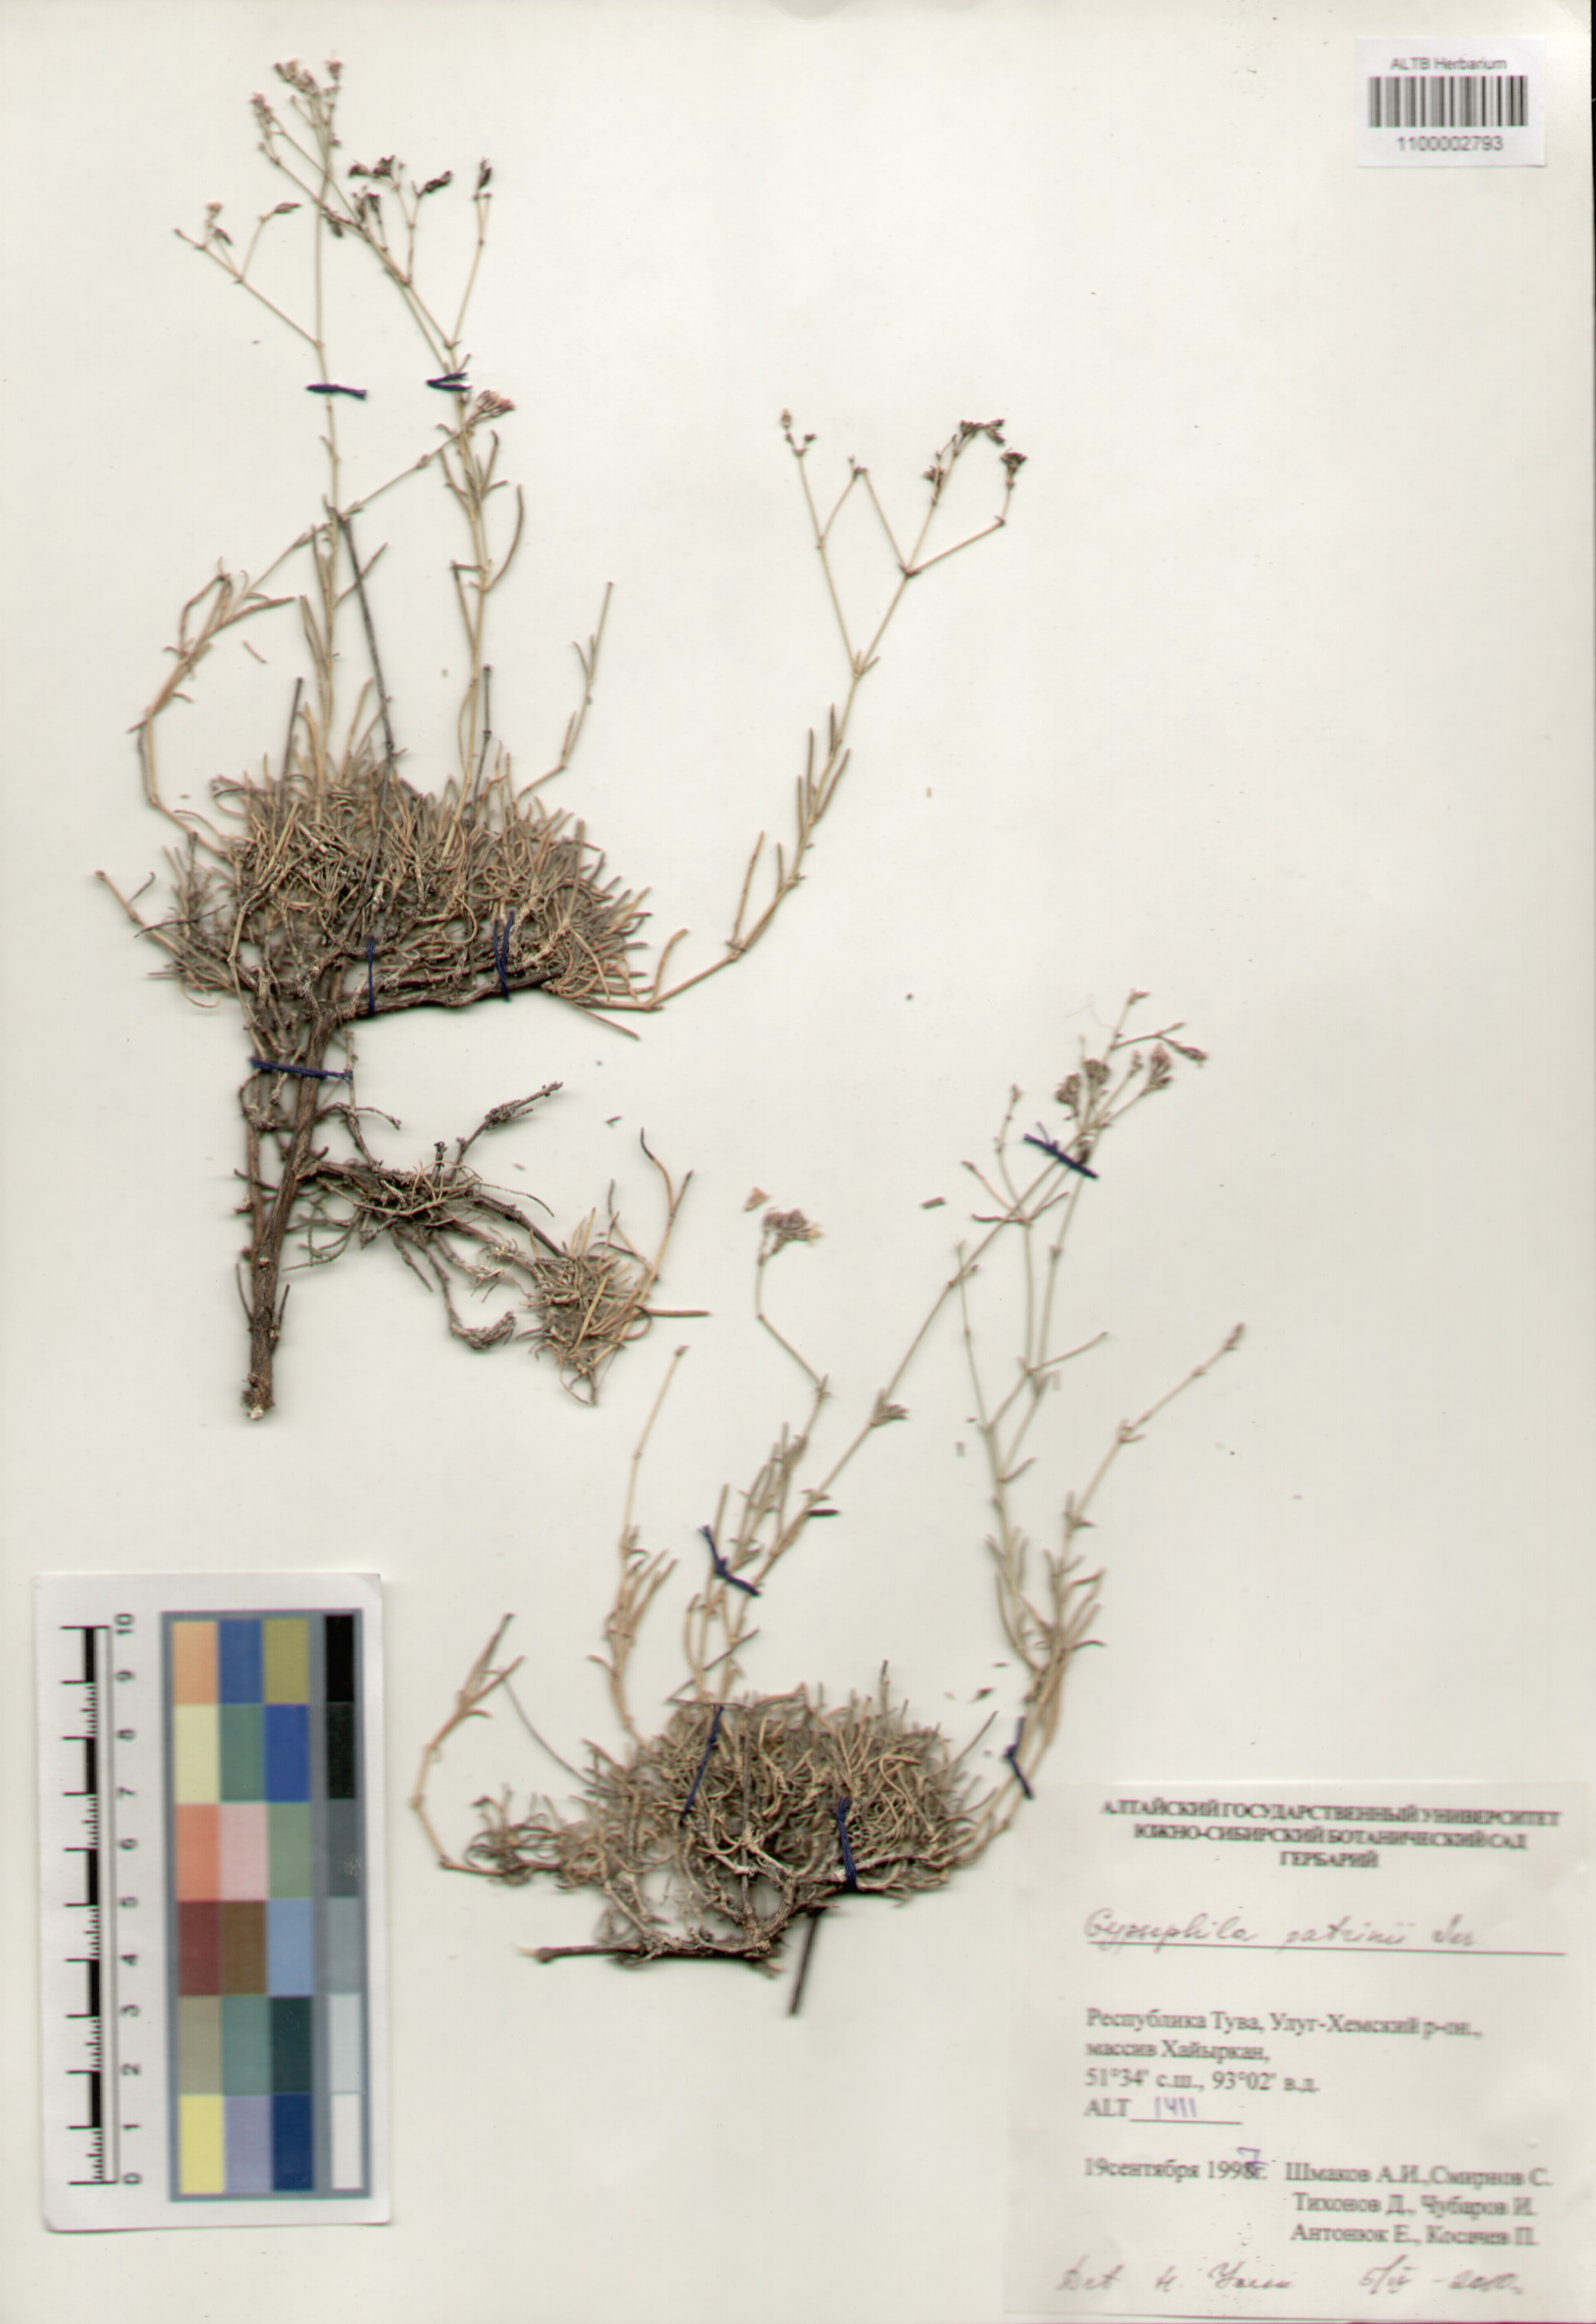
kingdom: Plantae
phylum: Tracheophyta
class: Magnoliopsida
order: Caryophyllales
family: Caryophyllaceae
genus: Gypsophila
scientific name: Gypsophila patrinii
